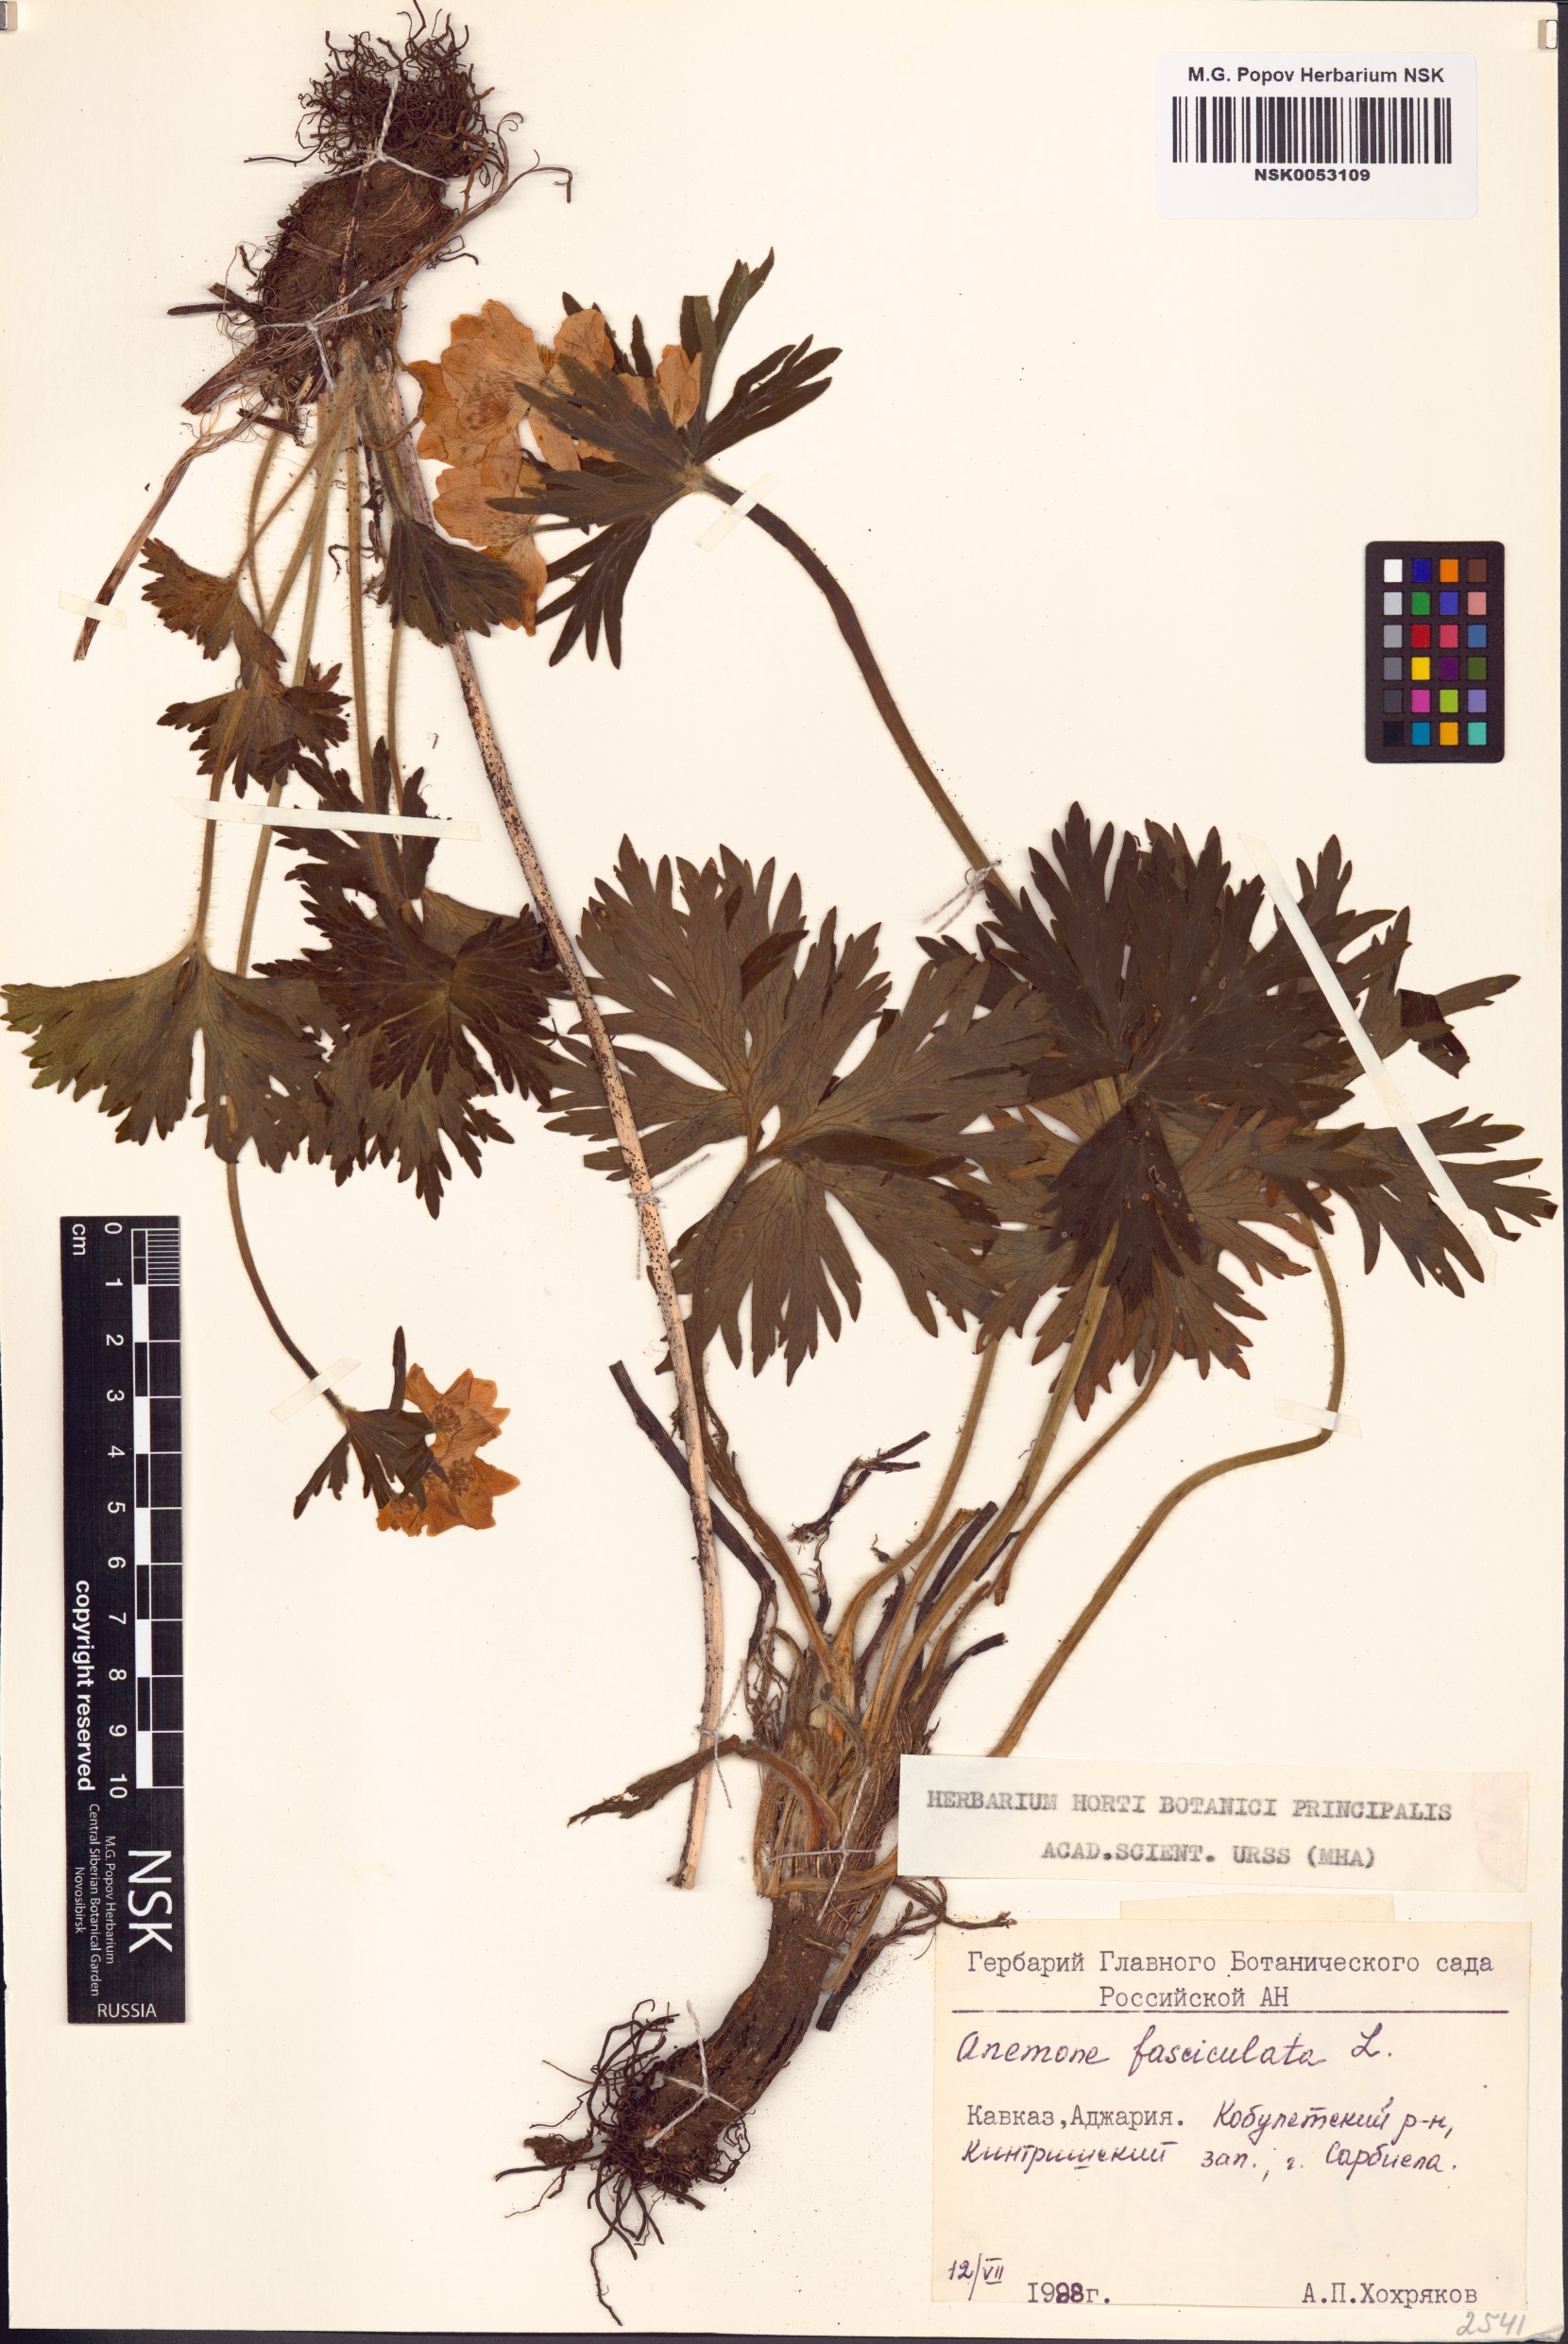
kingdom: Plantae
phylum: Tracheophyta
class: Magnoliopsida
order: Ranunculales
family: Ranunculaceae
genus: Anemonastrum
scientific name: Anemonastrum narcissiflorum
